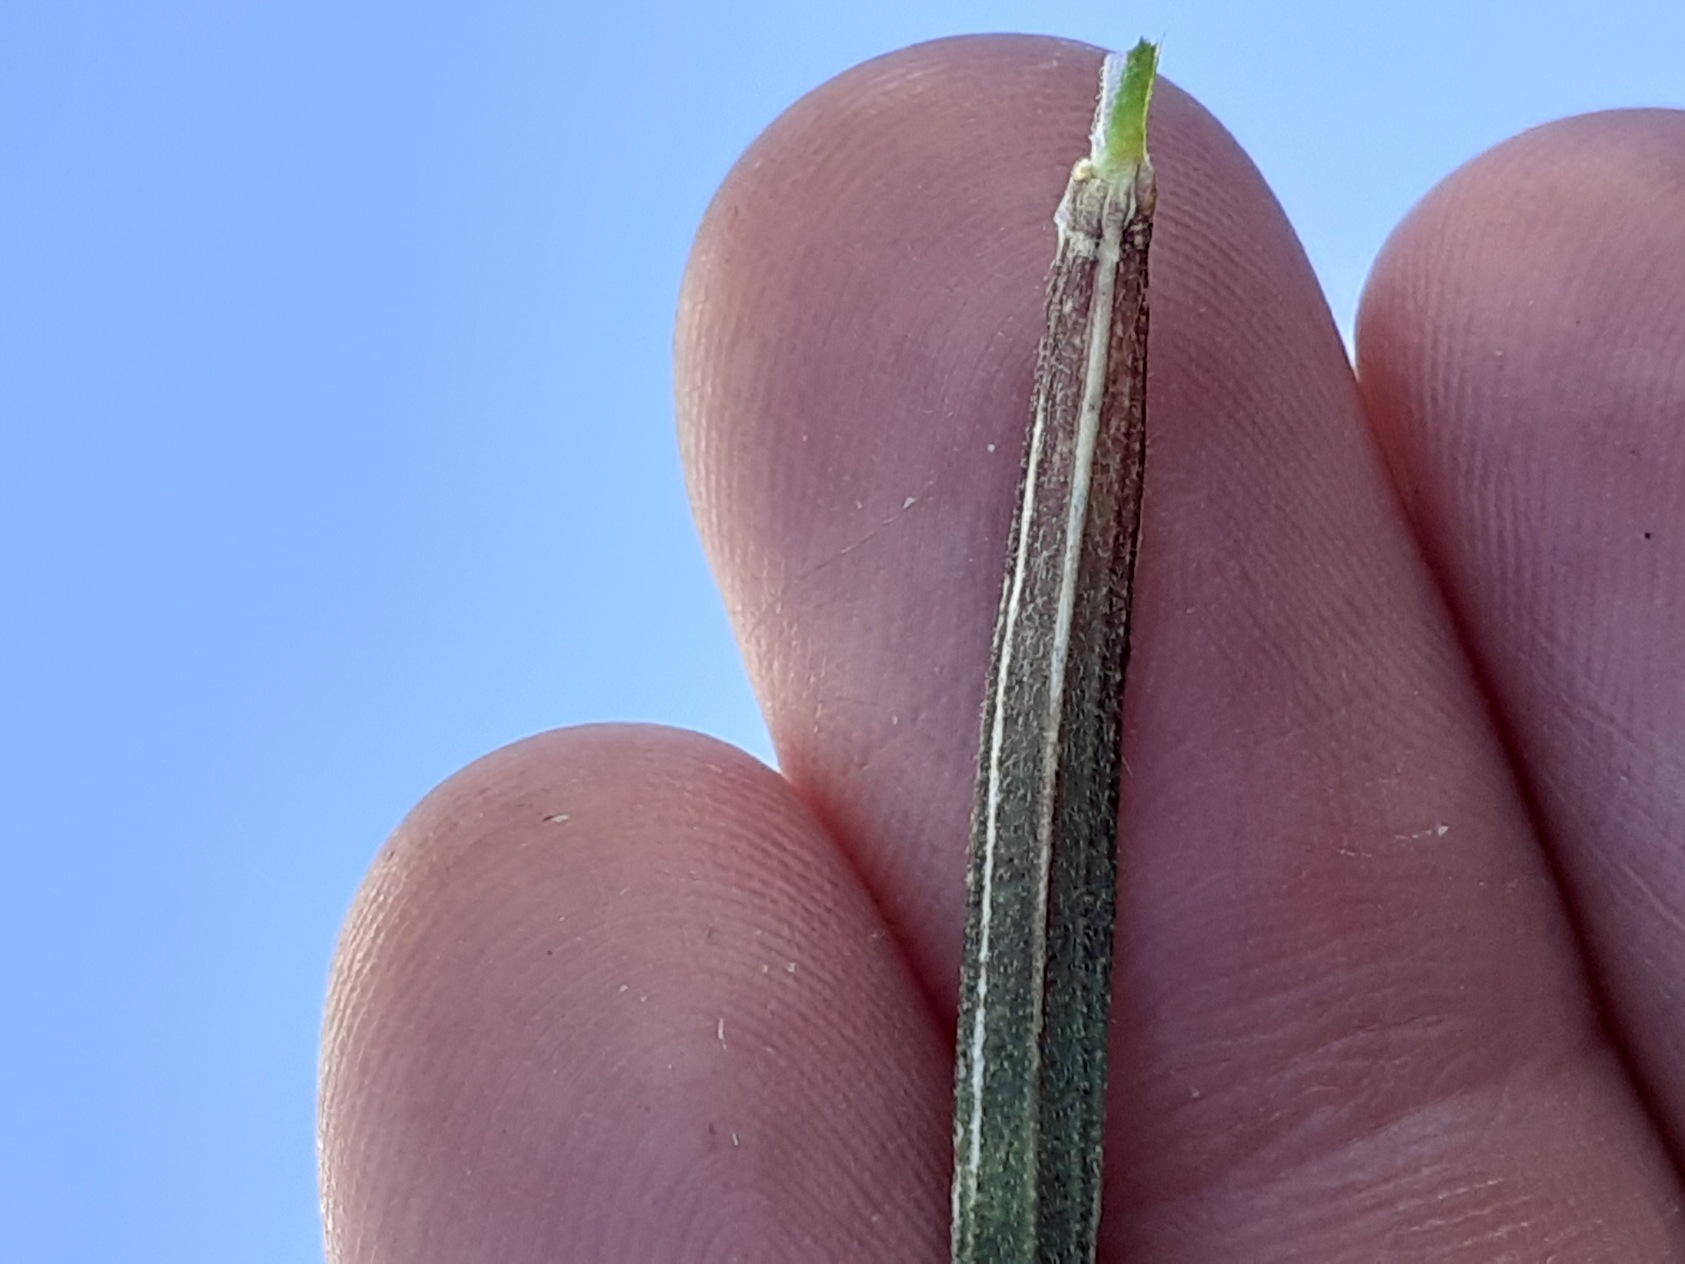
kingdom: Plantae
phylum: Tracheophyta
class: Magnoliopsida
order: Caryophyllales
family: Caryophyllaceae
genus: Dianthus
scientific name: Dianthus armeria
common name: Kost-nellike
